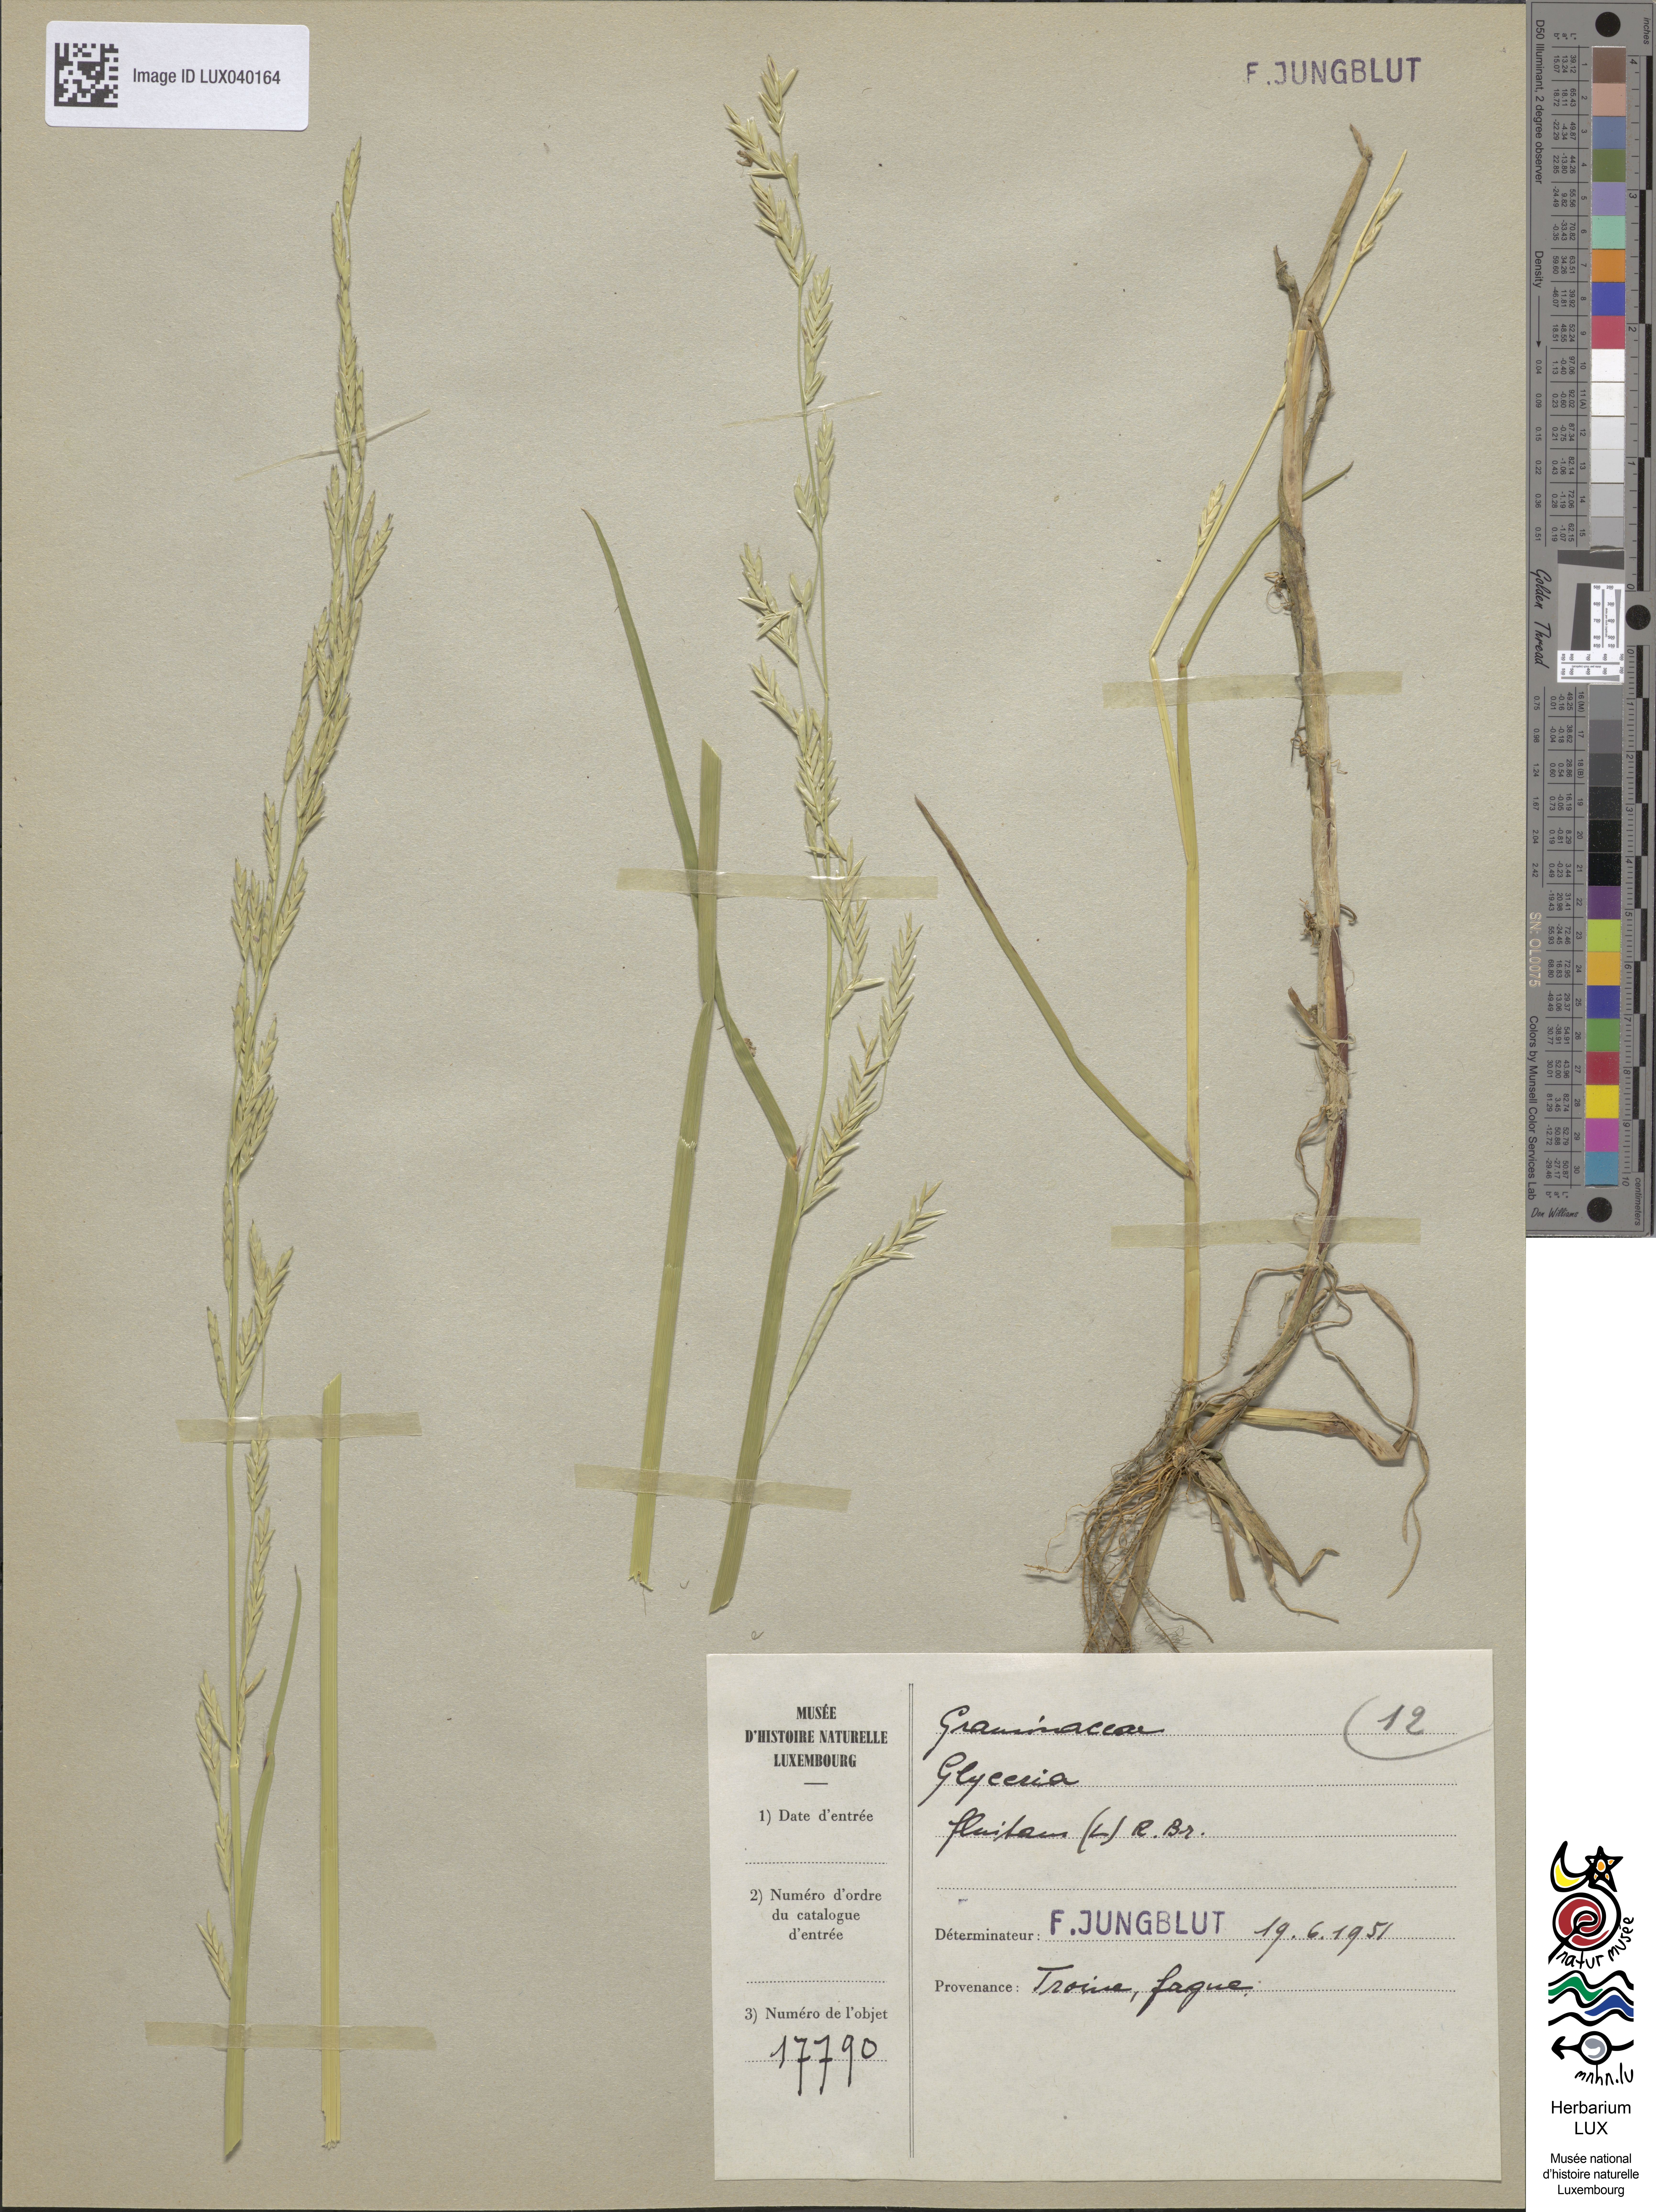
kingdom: Plantae
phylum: Tracheophyta
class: Liliopsida
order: Poales
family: Poaceae
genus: Glyceria
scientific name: Glyceria fluitans
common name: Floating sweet-grass
